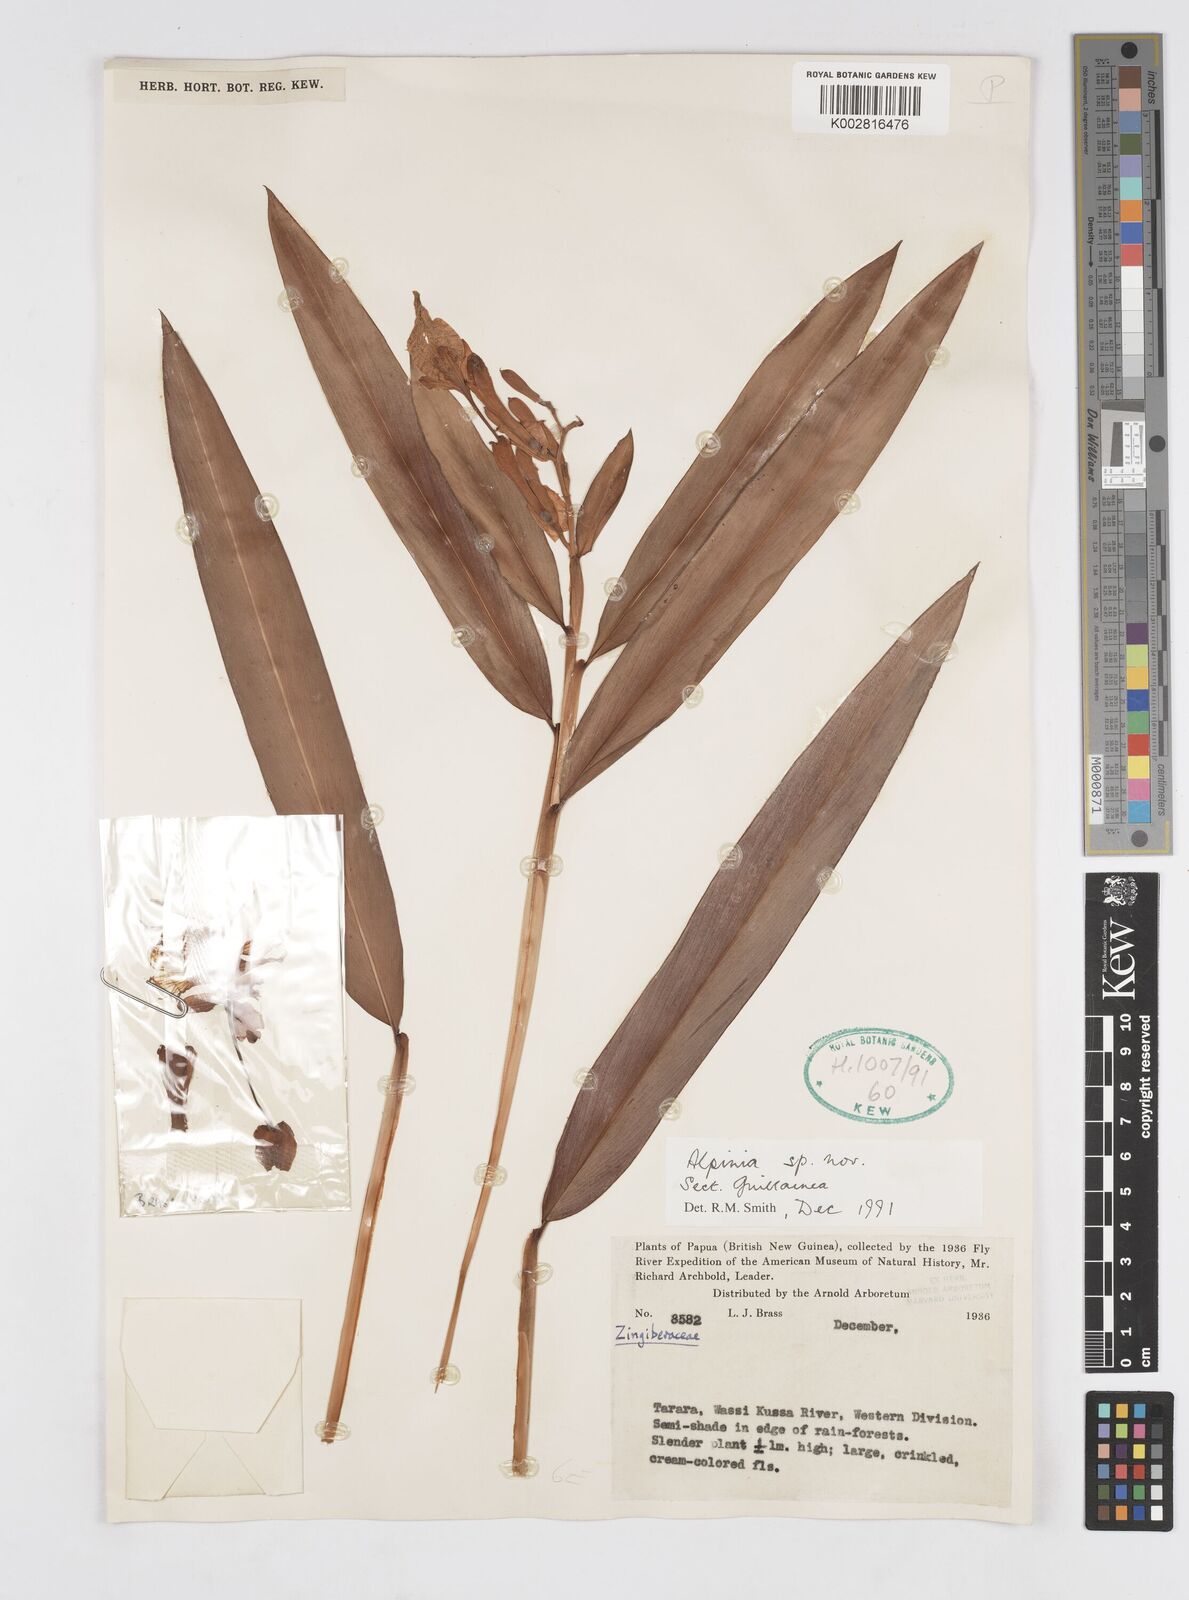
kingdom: Plantae
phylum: Tracheophyta
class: Liliopsida
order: Zingiberales
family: Zingiberaceae
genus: Alpinia
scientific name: Alpinia
